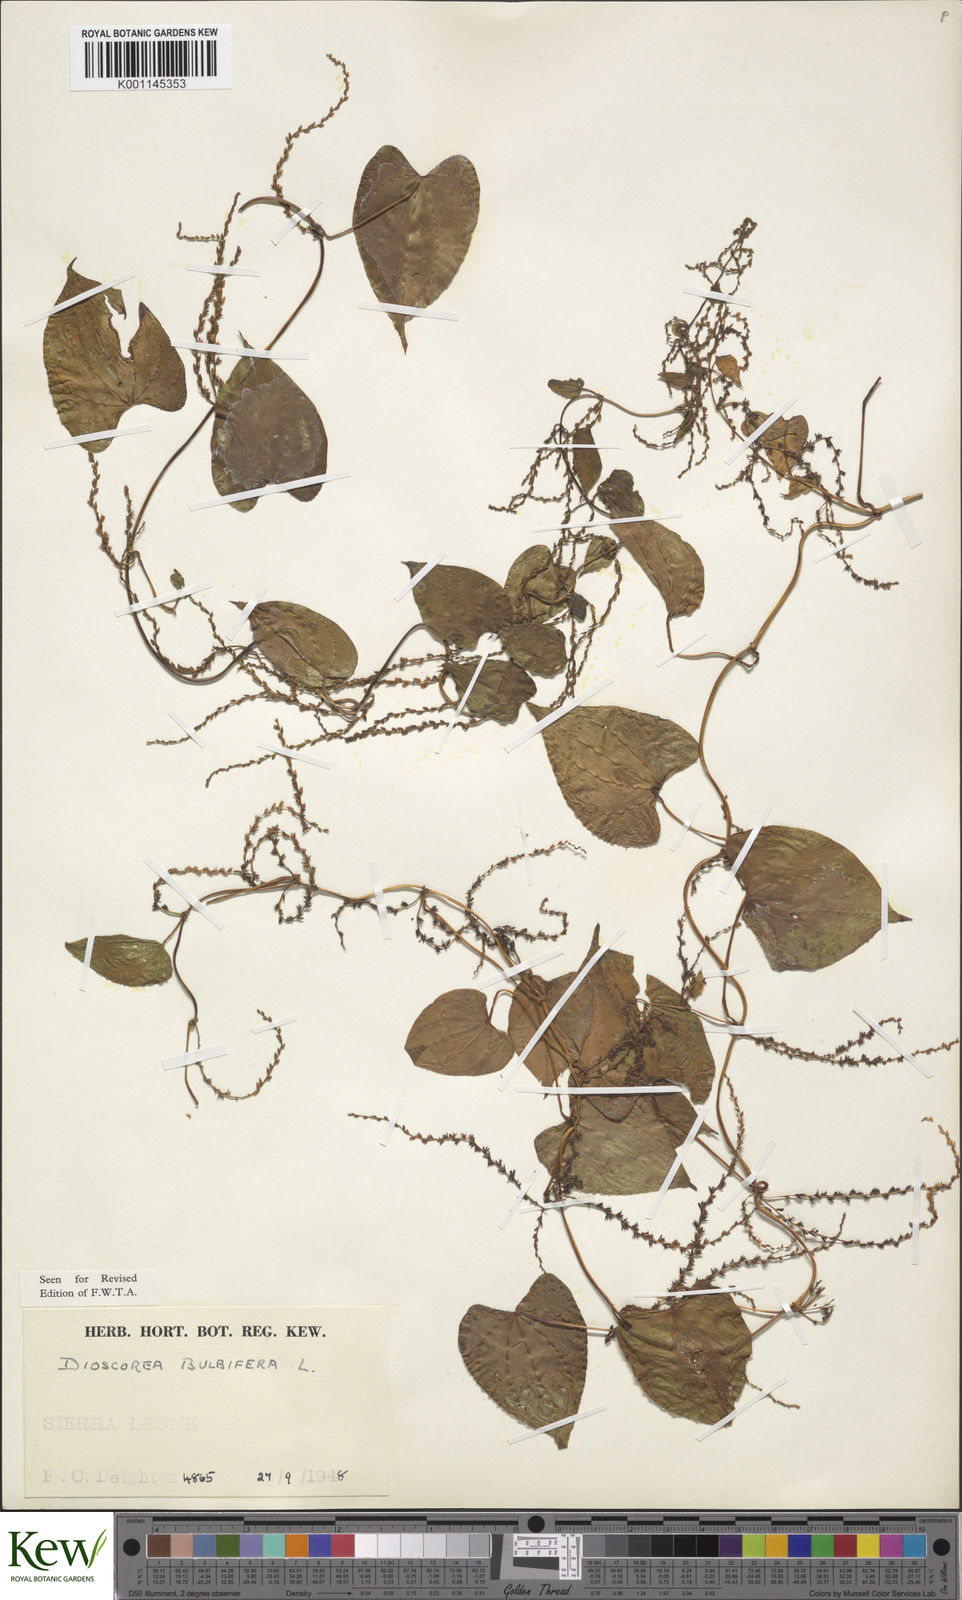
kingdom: Plantae
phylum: Tracheophyta
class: Liliopsida
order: Dioscoreales
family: Dioscoreaceae
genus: Dioscorea
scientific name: Dioscorea bulbifera
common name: Air yam
